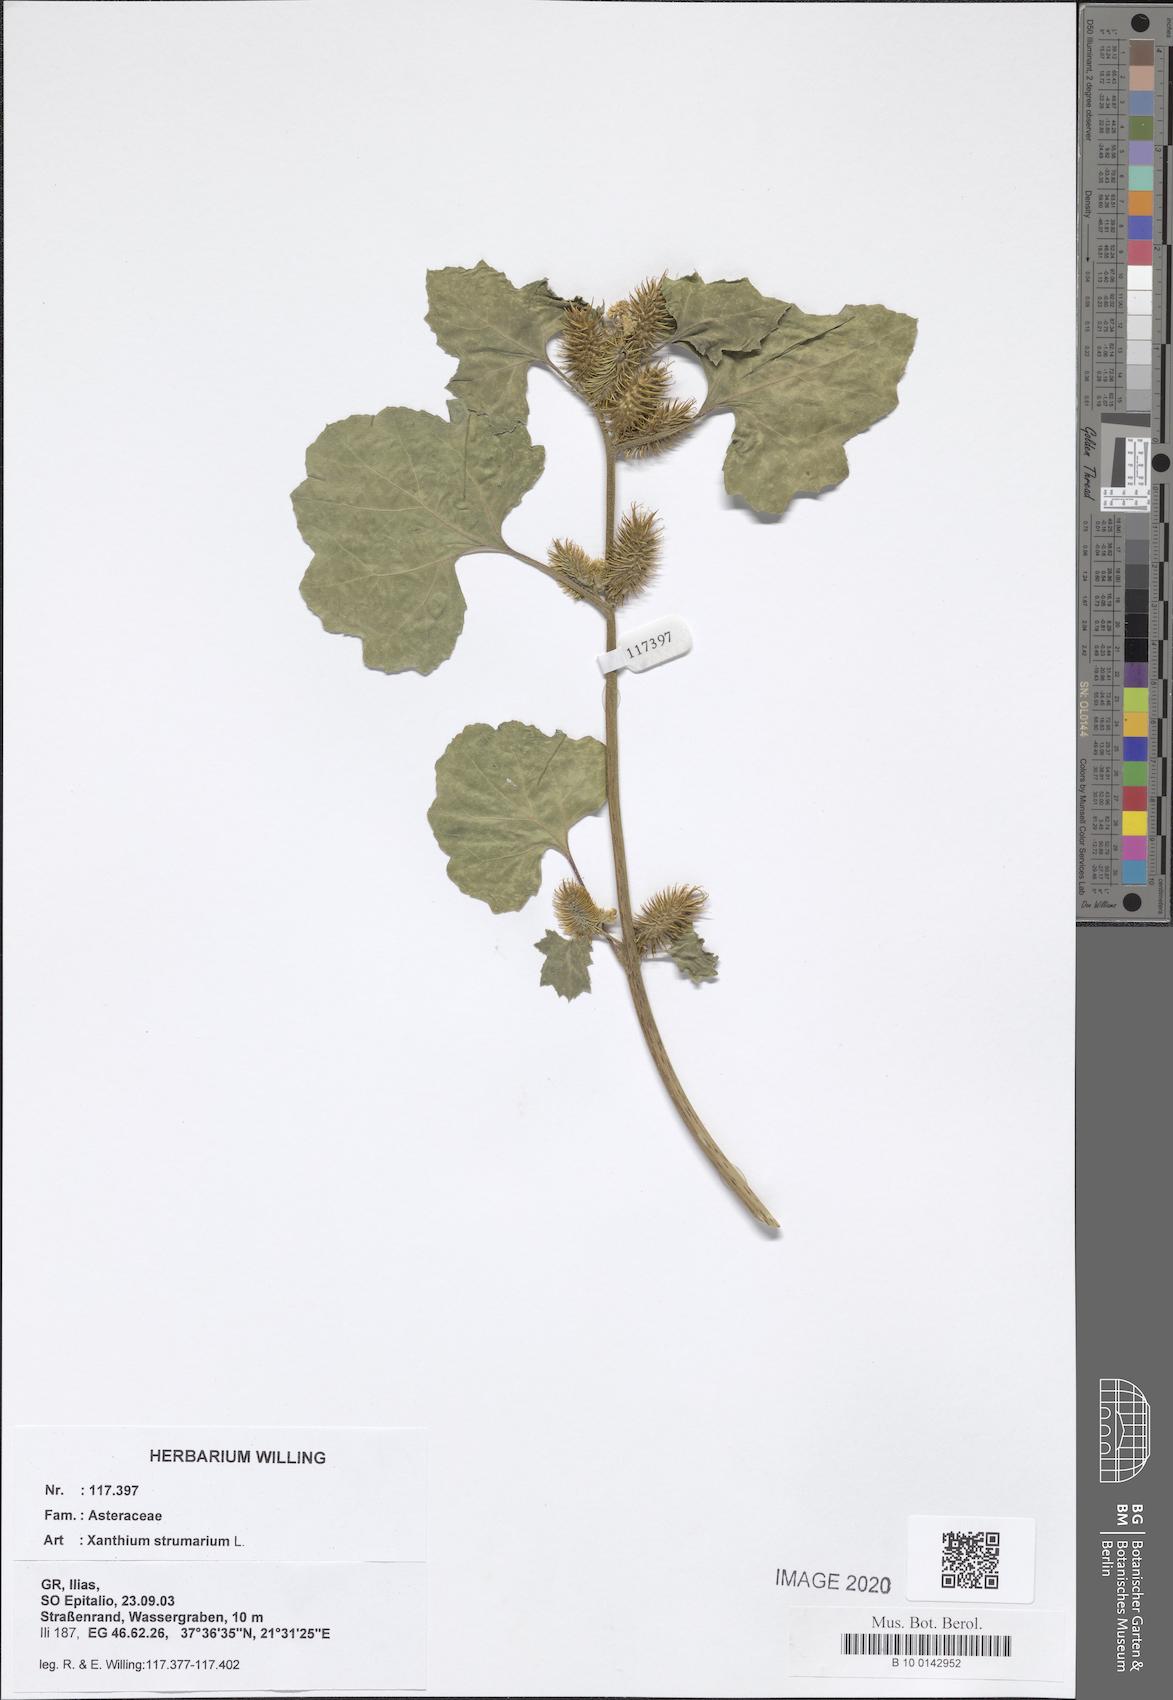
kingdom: Plantae
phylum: Tracheophyta
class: Magnoliopsida
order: Asterales
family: Asteraceae
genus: Xanthium
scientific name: Xanthium strumarium
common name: Rough cocklebur
